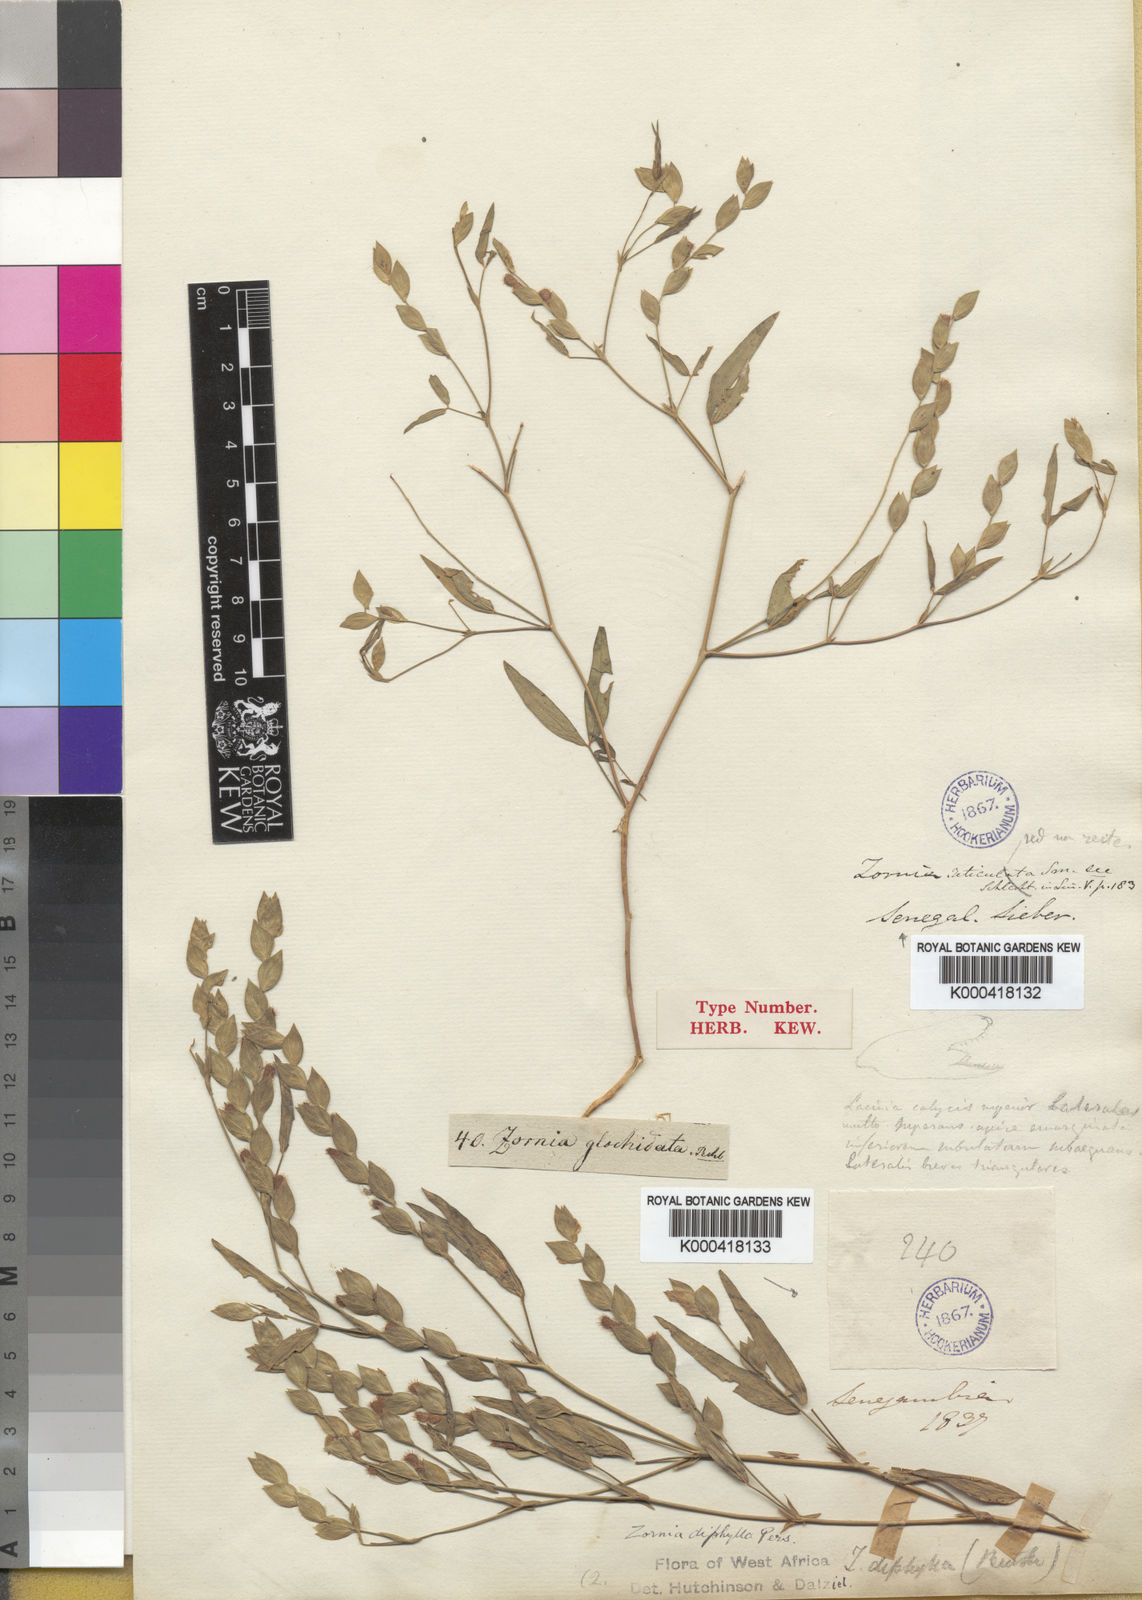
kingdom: Plantae
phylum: Tracheophyta
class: Magnoliopsida
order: Fabales
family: Fabaceae
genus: Zornia
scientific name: Zornia glochidiata
